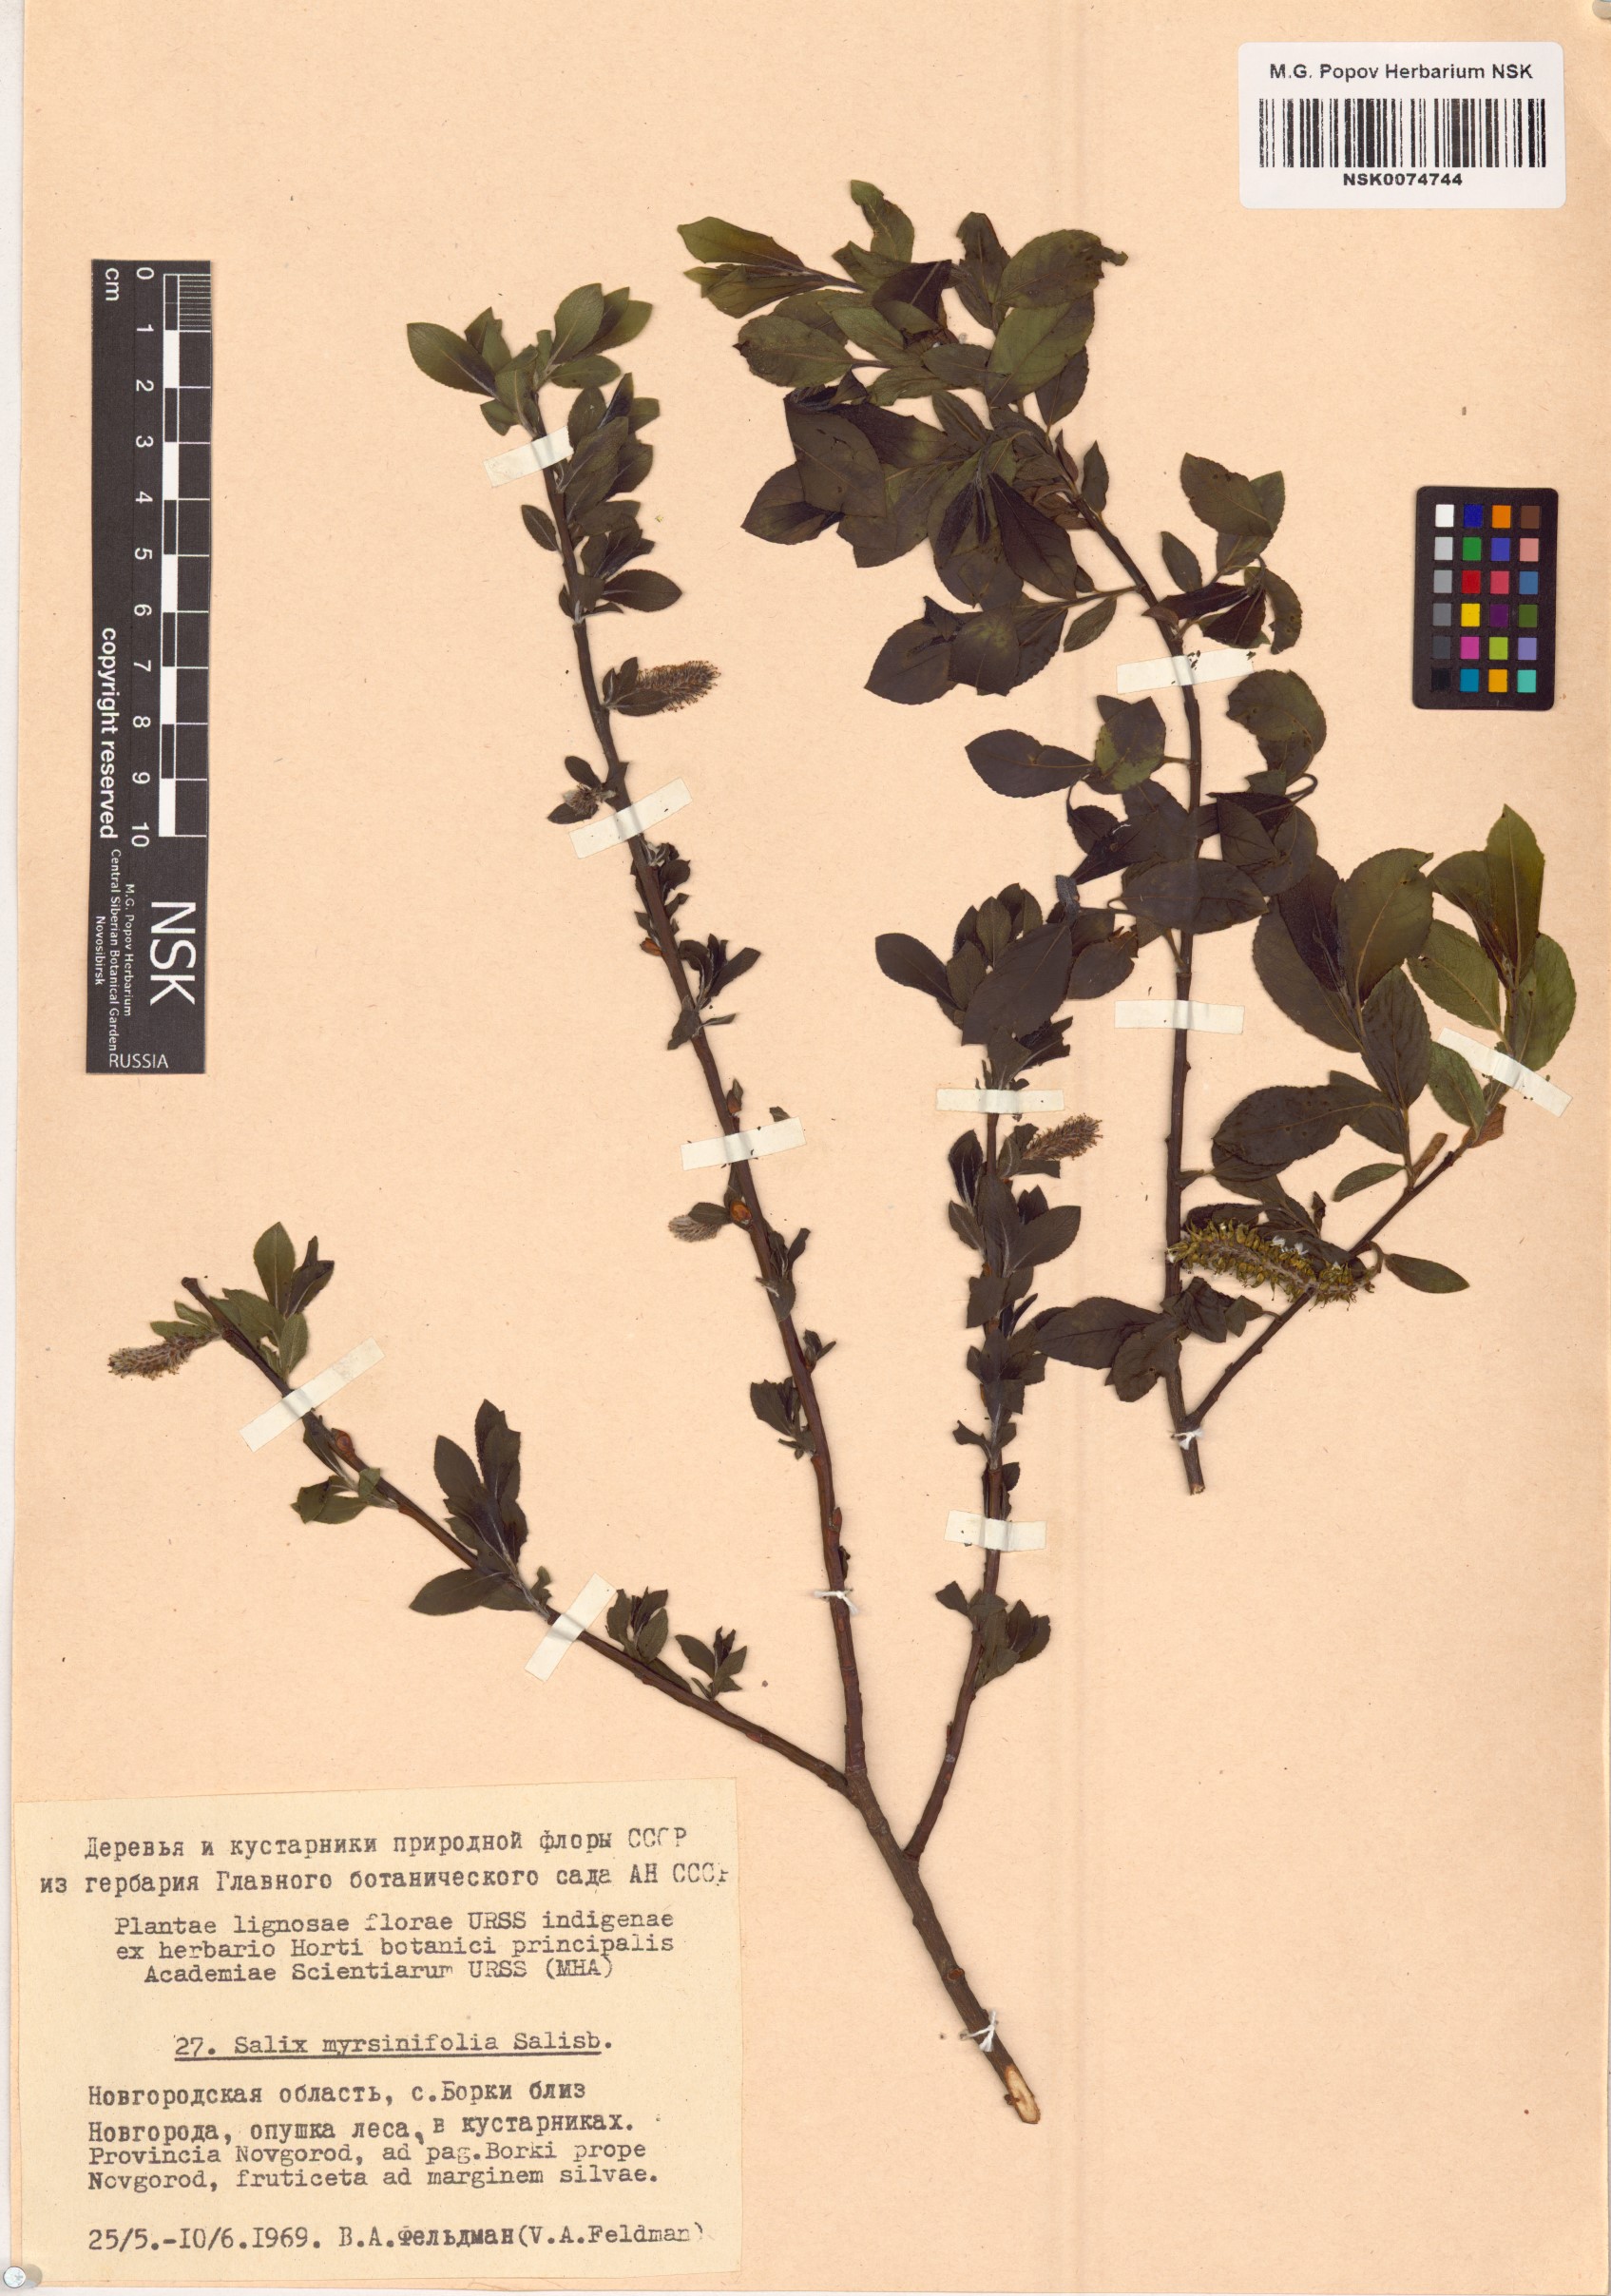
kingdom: Plantae
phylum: Tracheophyta
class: Magnoliopsida
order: Malpighiales
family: Salicaceae
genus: Salix
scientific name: Salix myrsinifolia
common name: Dark-leaved willow
